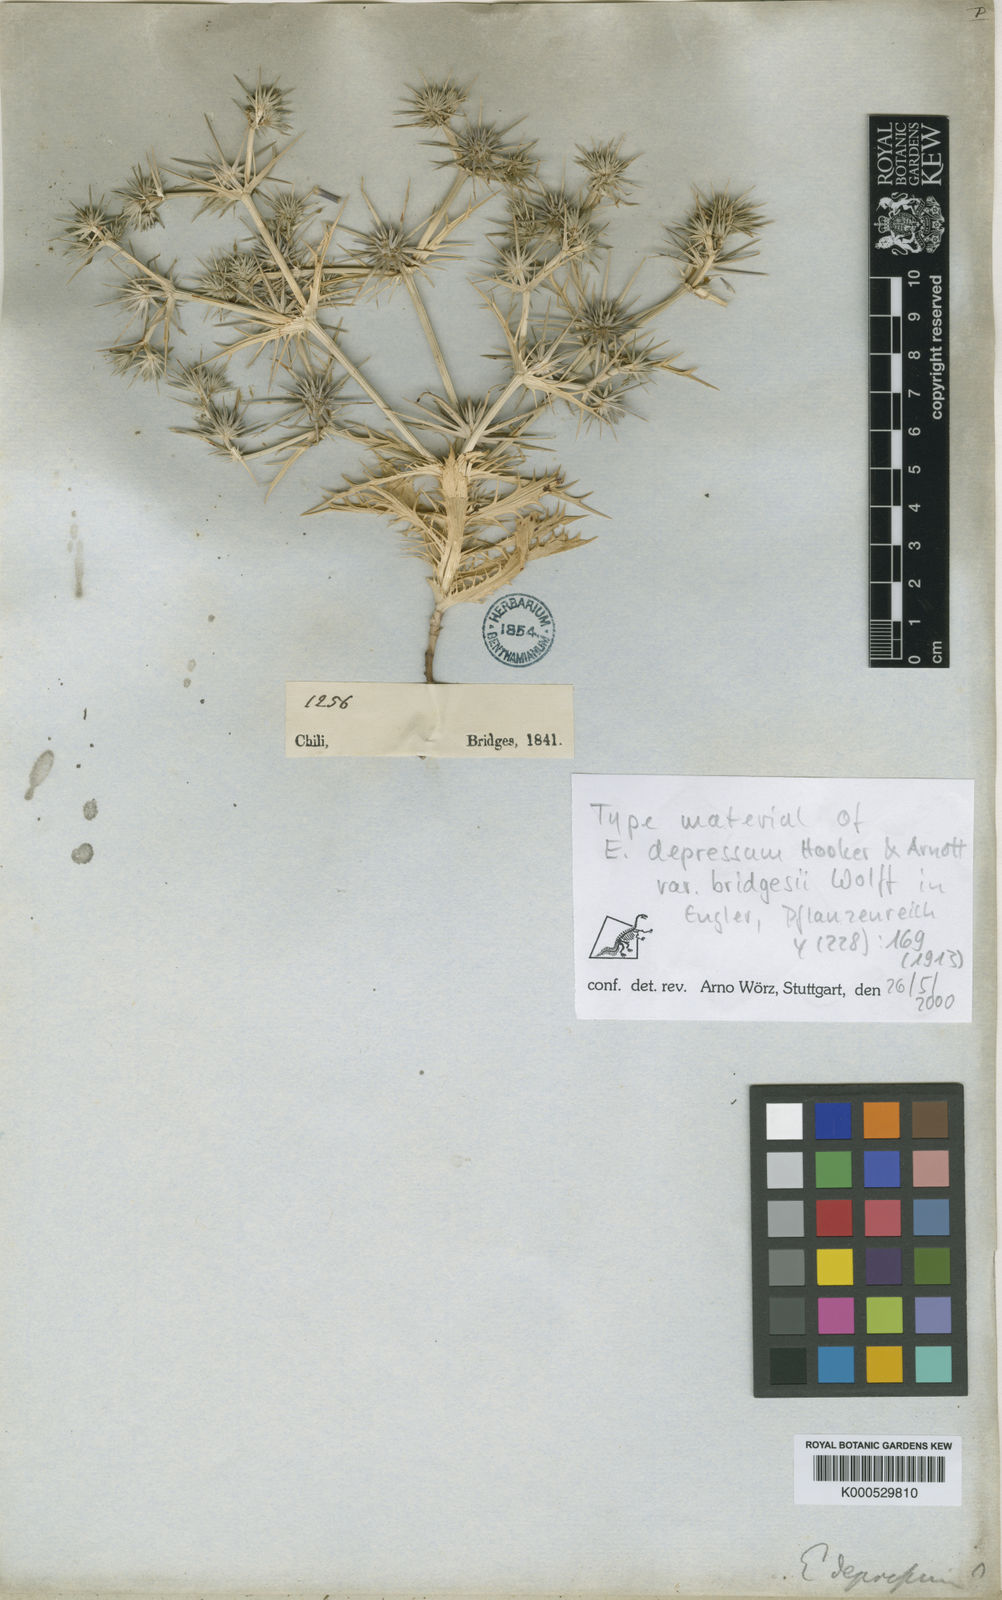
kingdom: Plantae
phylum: Tracheophyta
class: Magnoliopsida
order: Apiales
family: Apiaceae
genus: Eryngium
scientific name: Eryngium depressum
